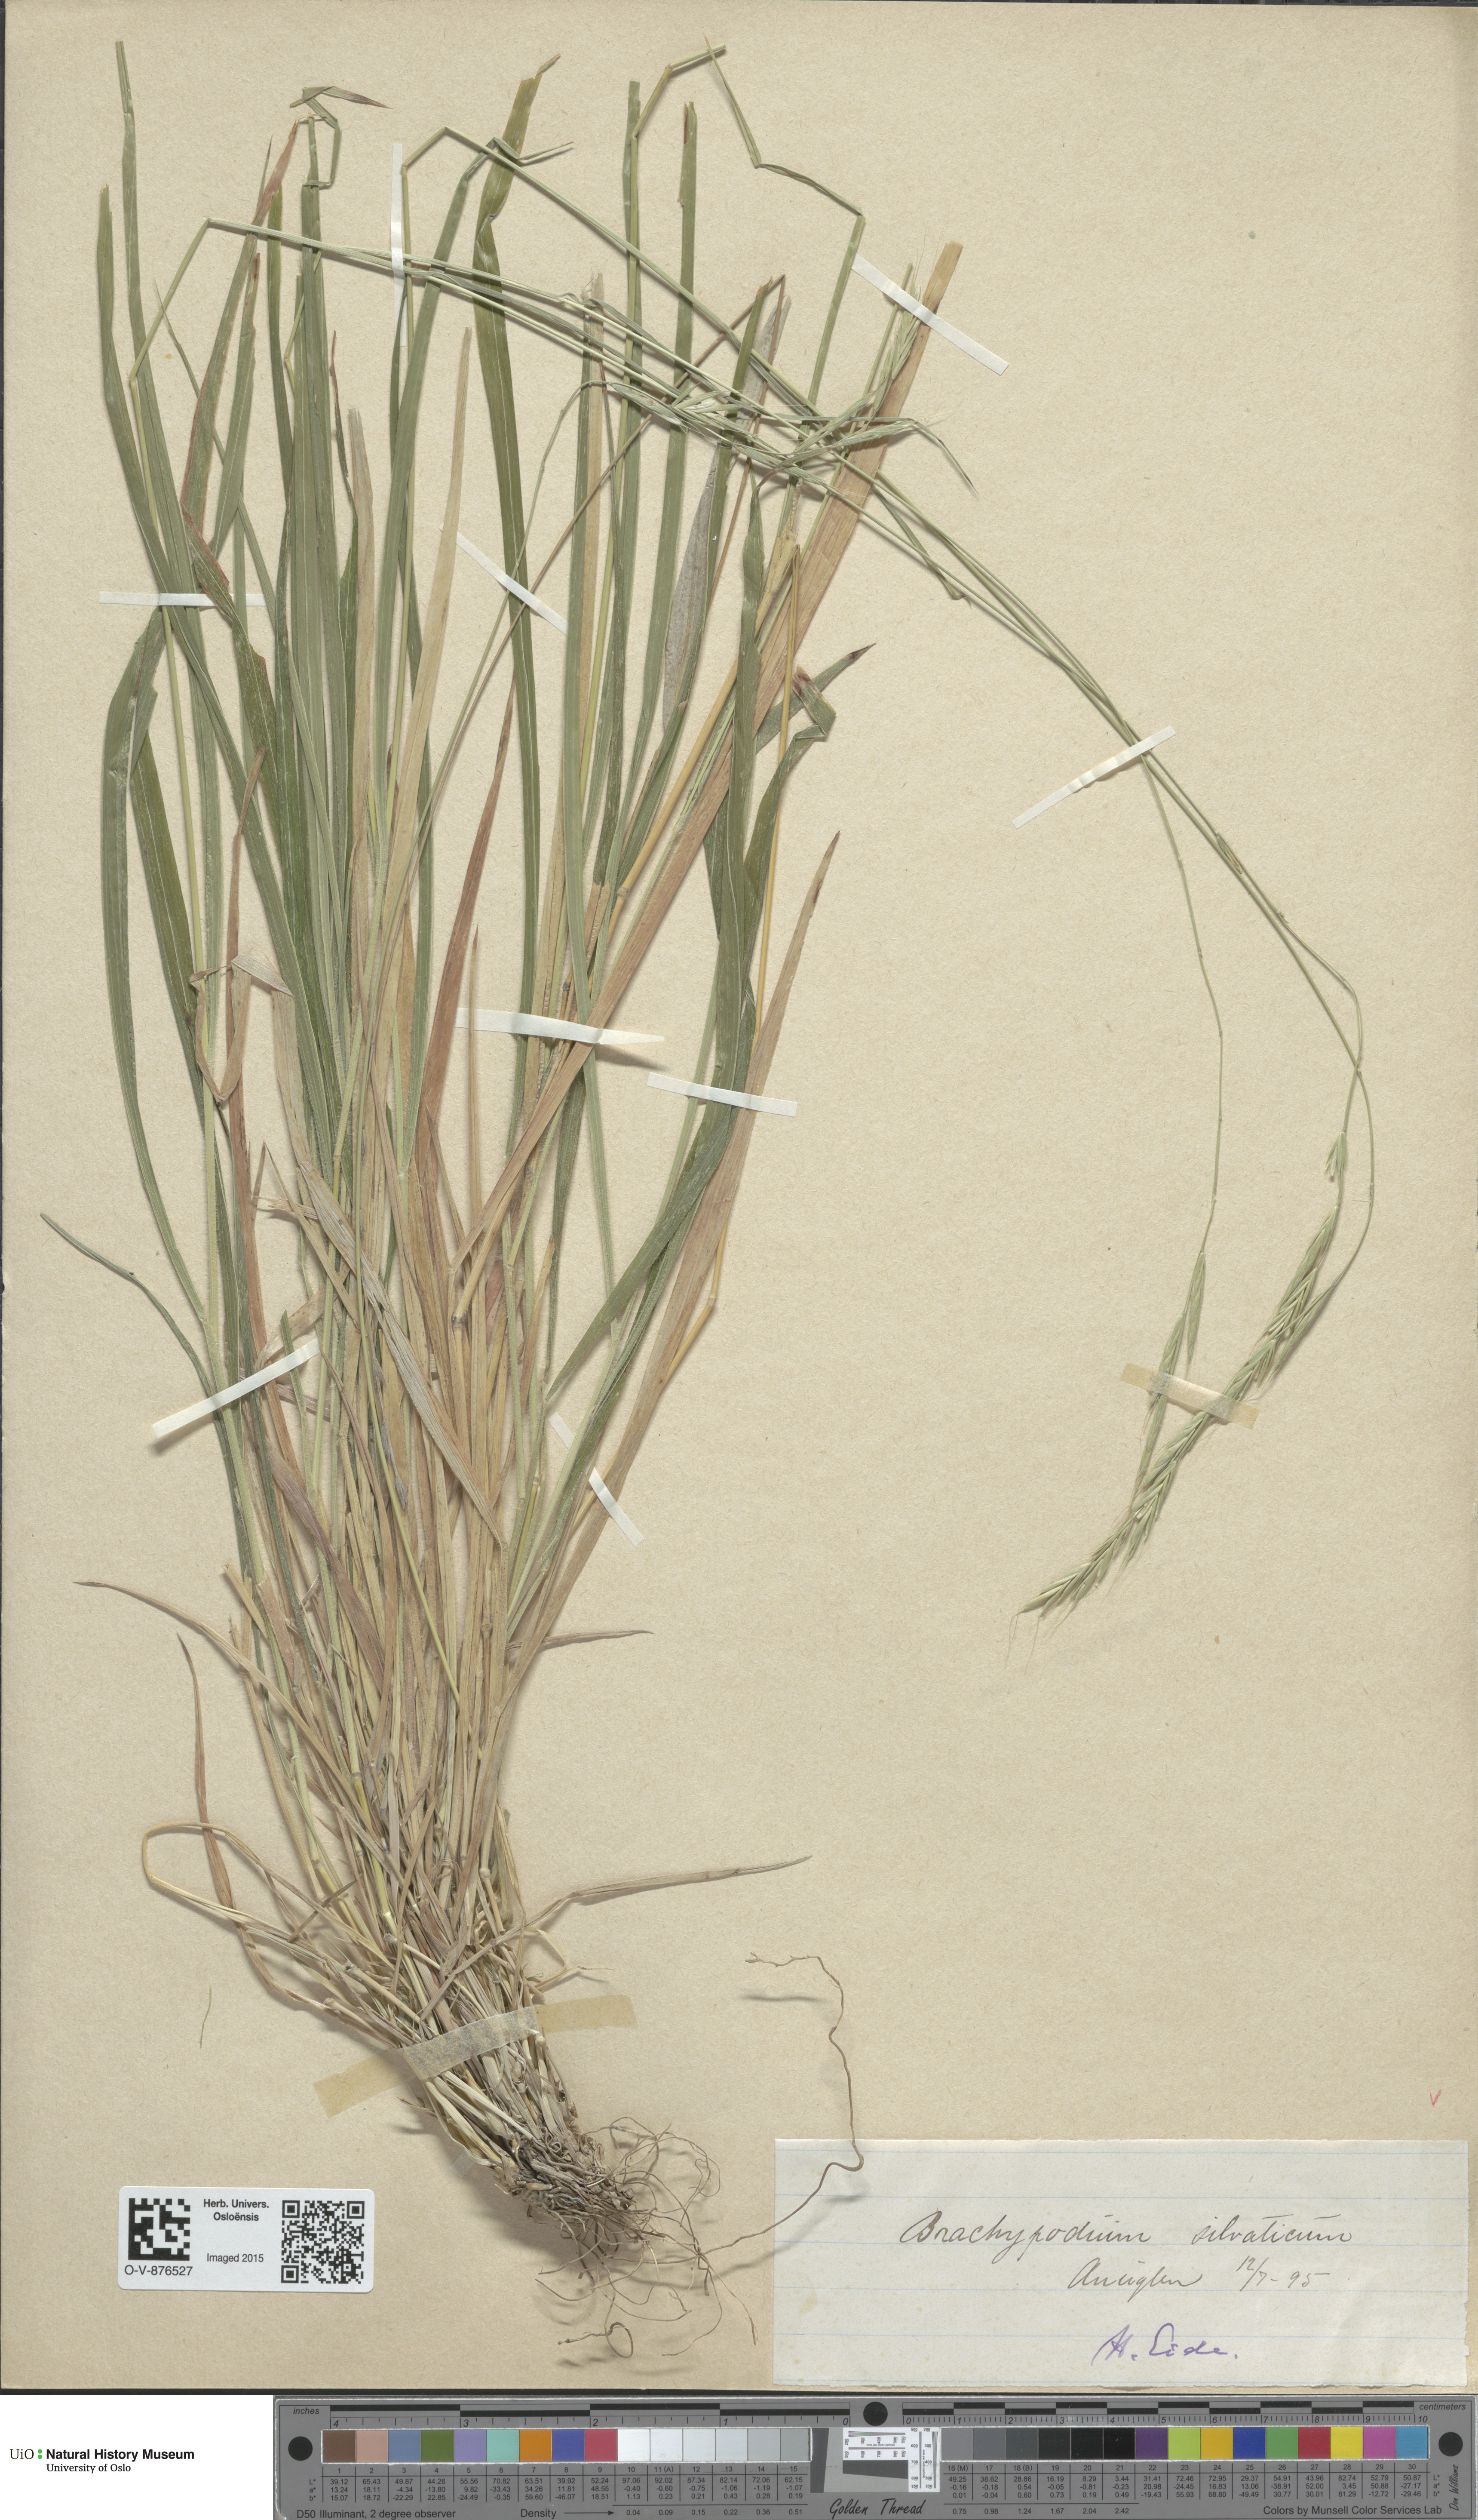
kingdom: Plantae
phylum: Tracheophyta
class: Liliopsida
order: Poales
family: Poaceae
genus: Brachypodium
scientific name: Brachypodium sylvaticum
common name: False-brome
